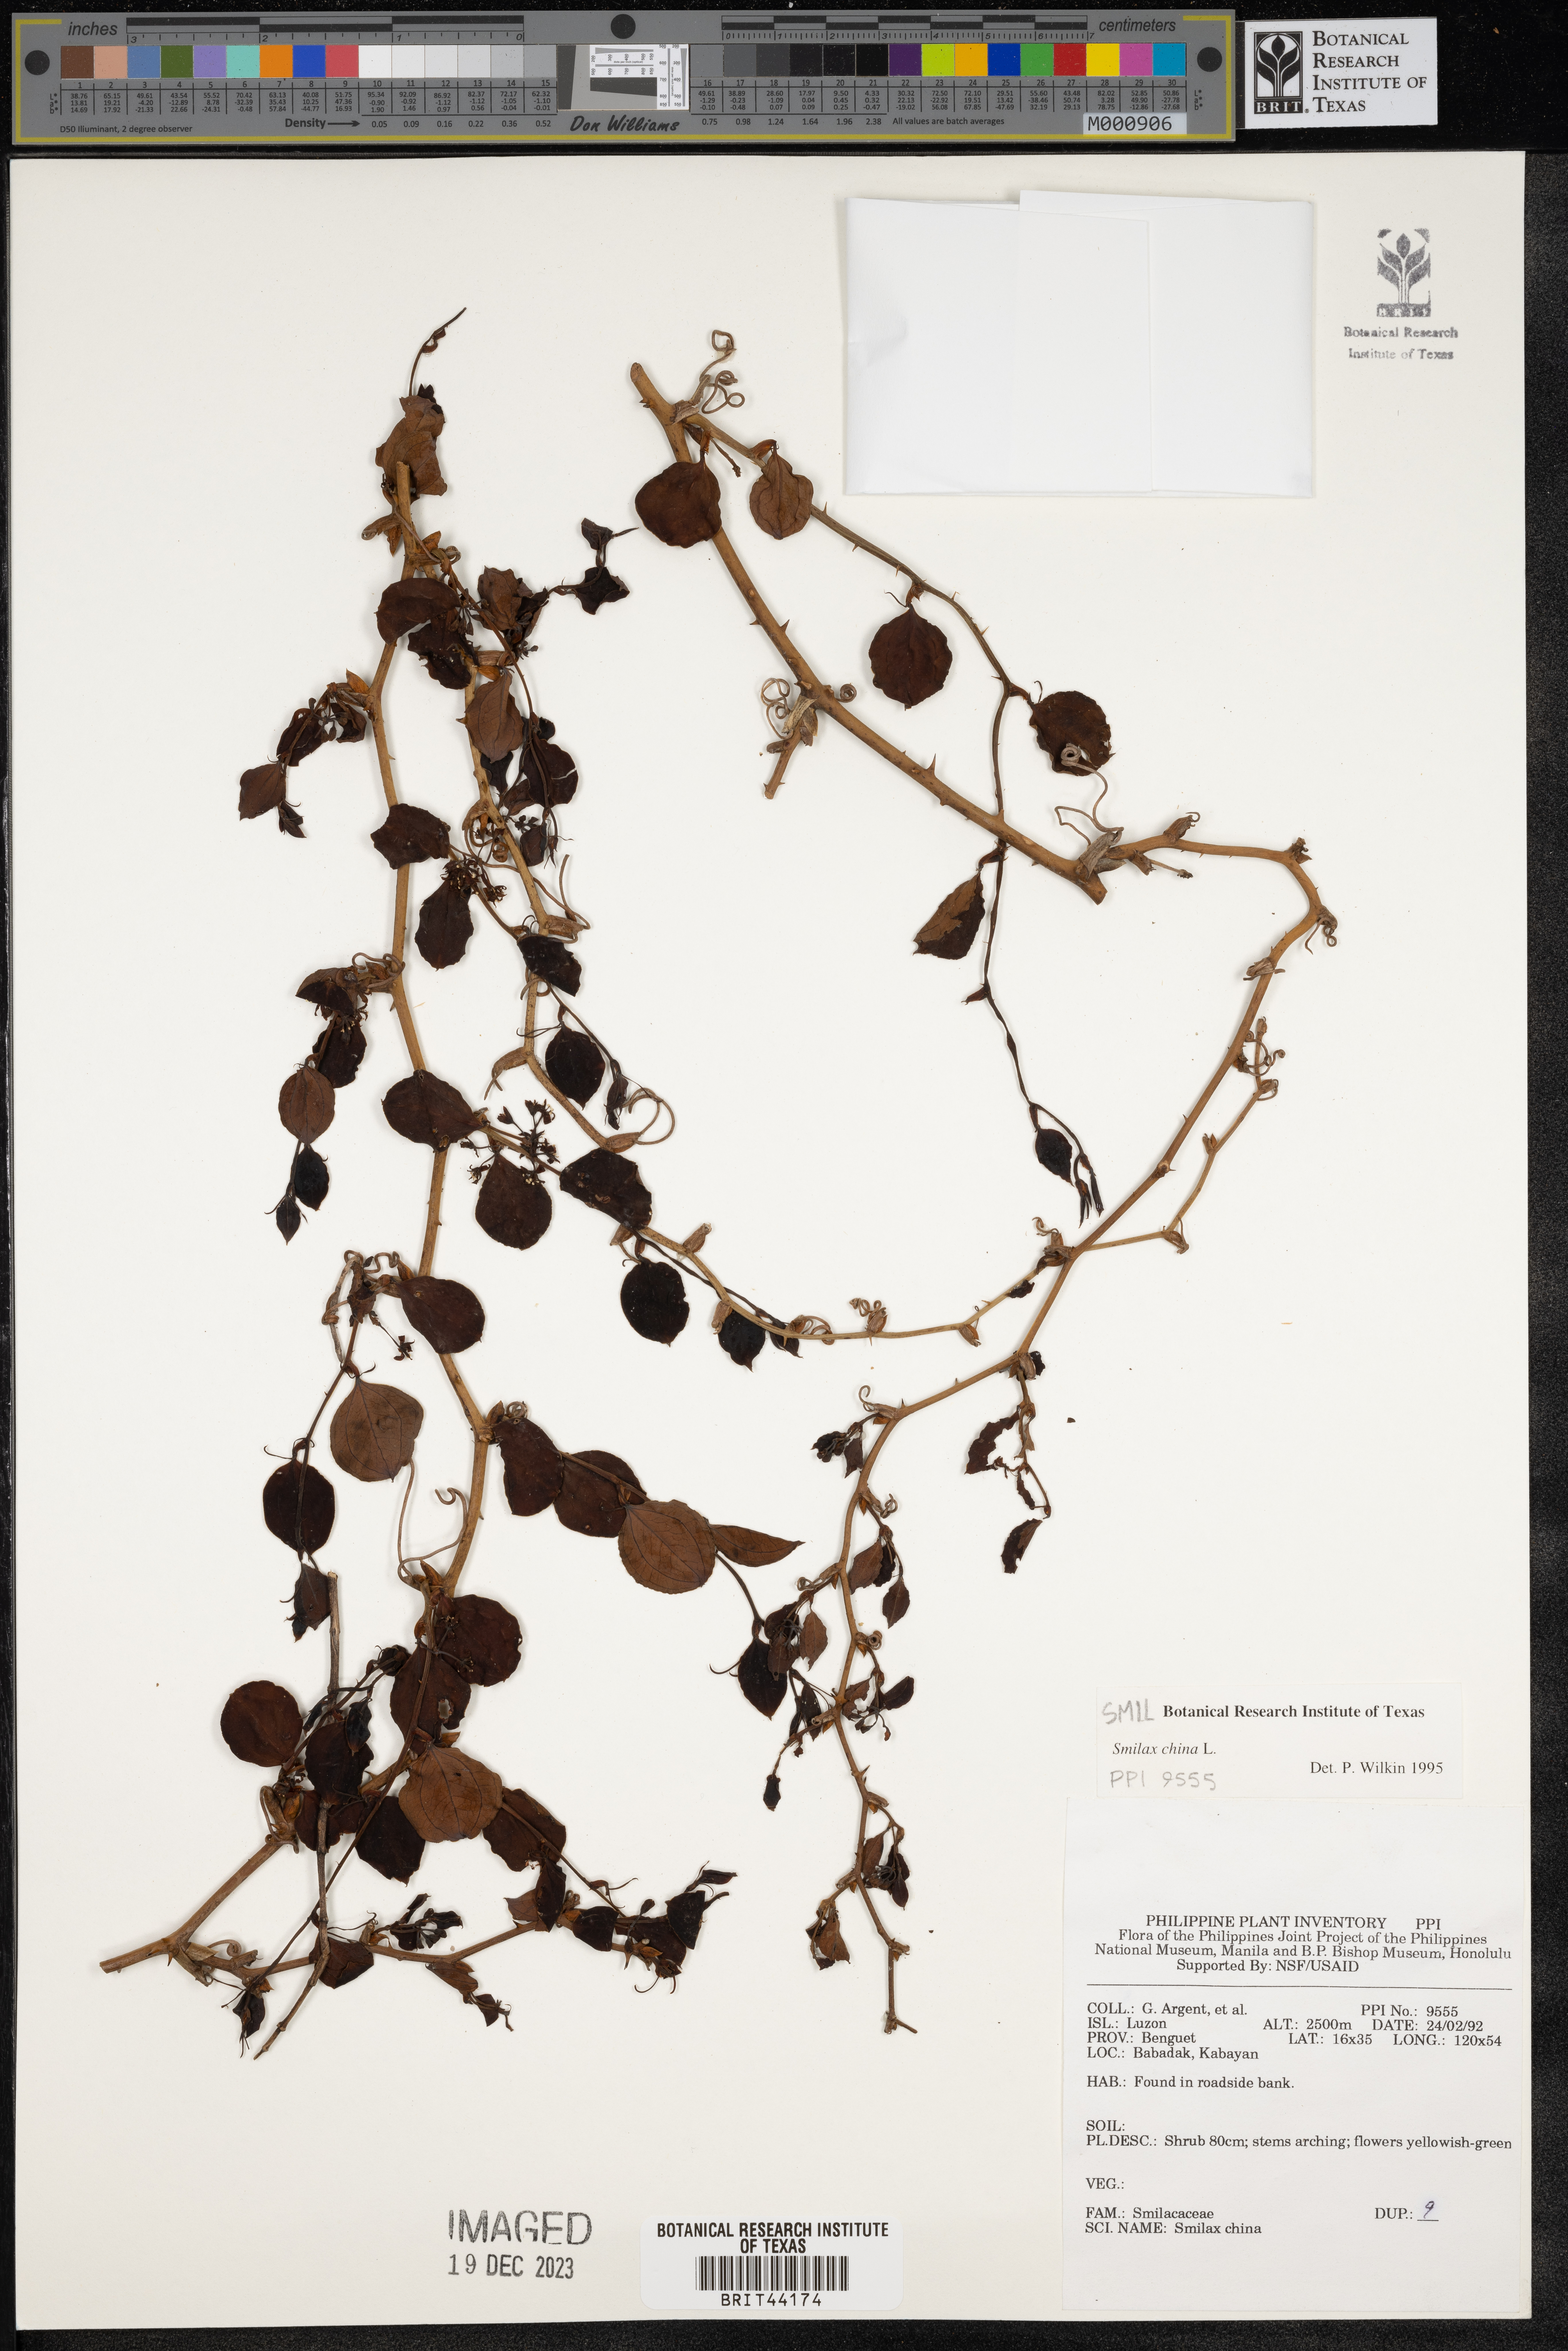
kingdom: Plantae
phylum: Tracheophyta
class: Liliopsida
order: Liliales
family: Smilacaceae
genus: Smilax
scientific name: Smilax china
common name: Chinaroot
